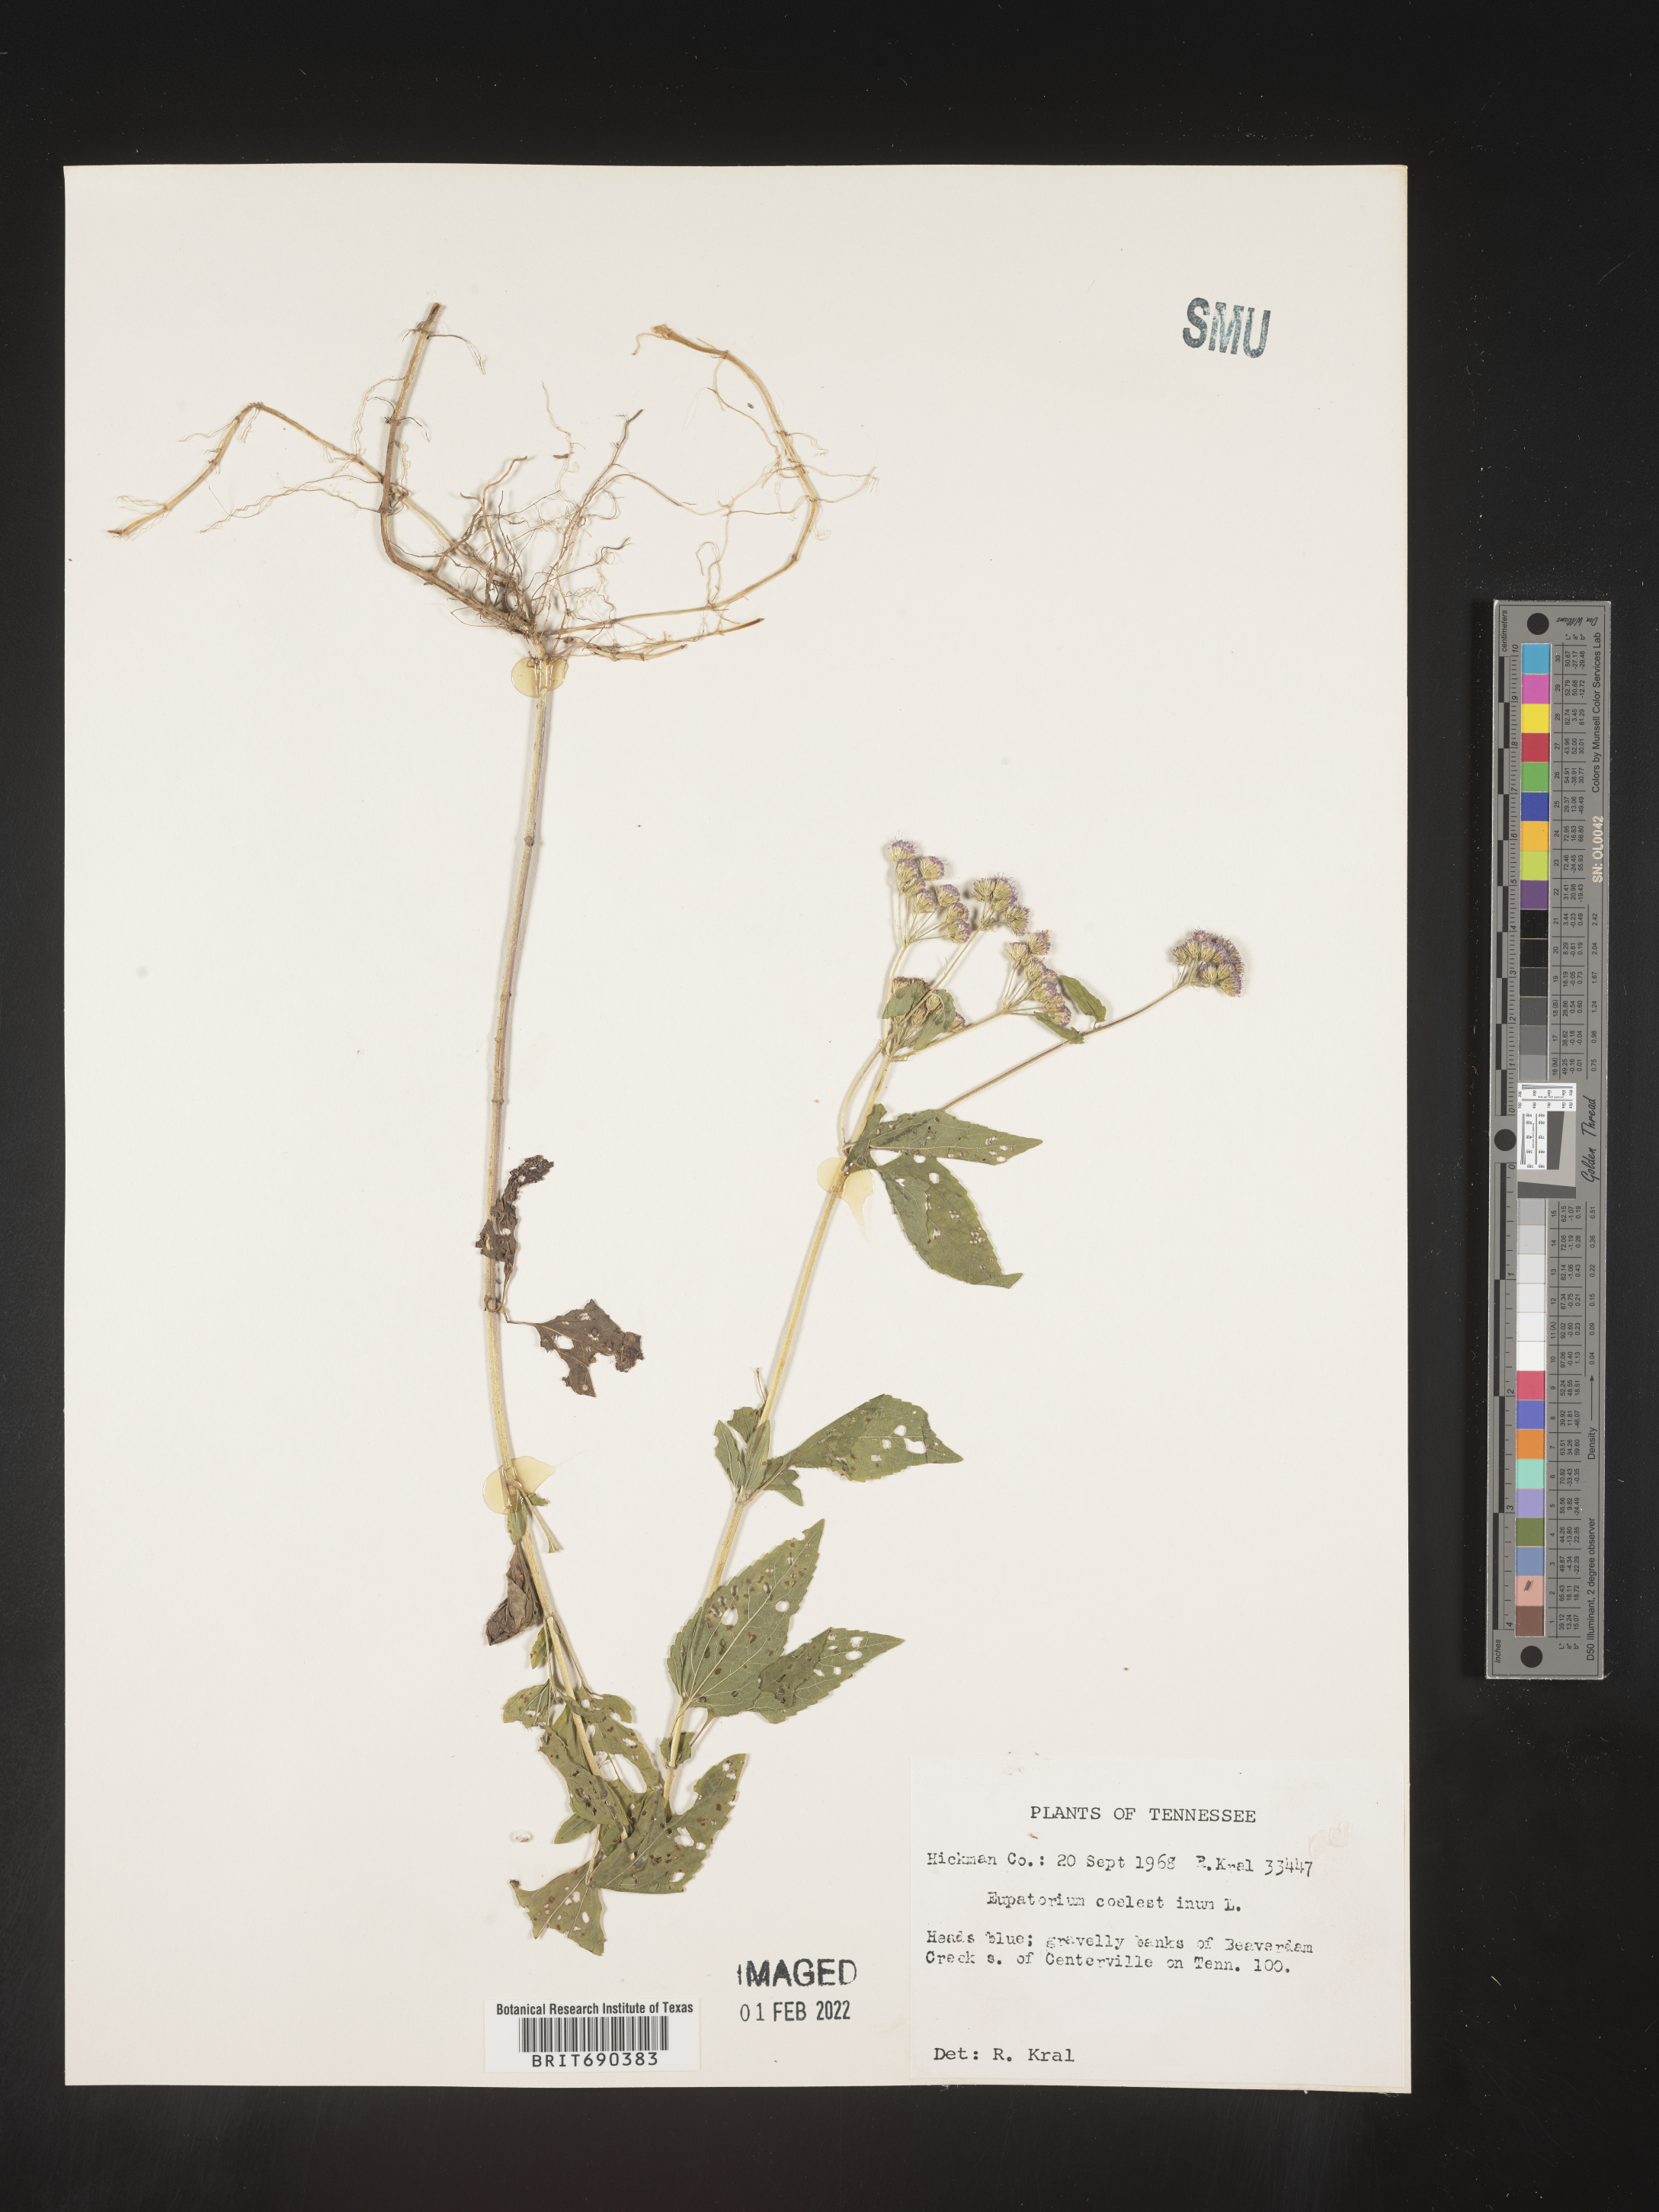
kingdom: Plantae
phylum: Tracheophyta
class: Magnoliopsida
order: Asterales
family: Asteraceae
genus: Conoclinium
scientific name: Conoclinium coelestinum
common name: Blue mistflower
